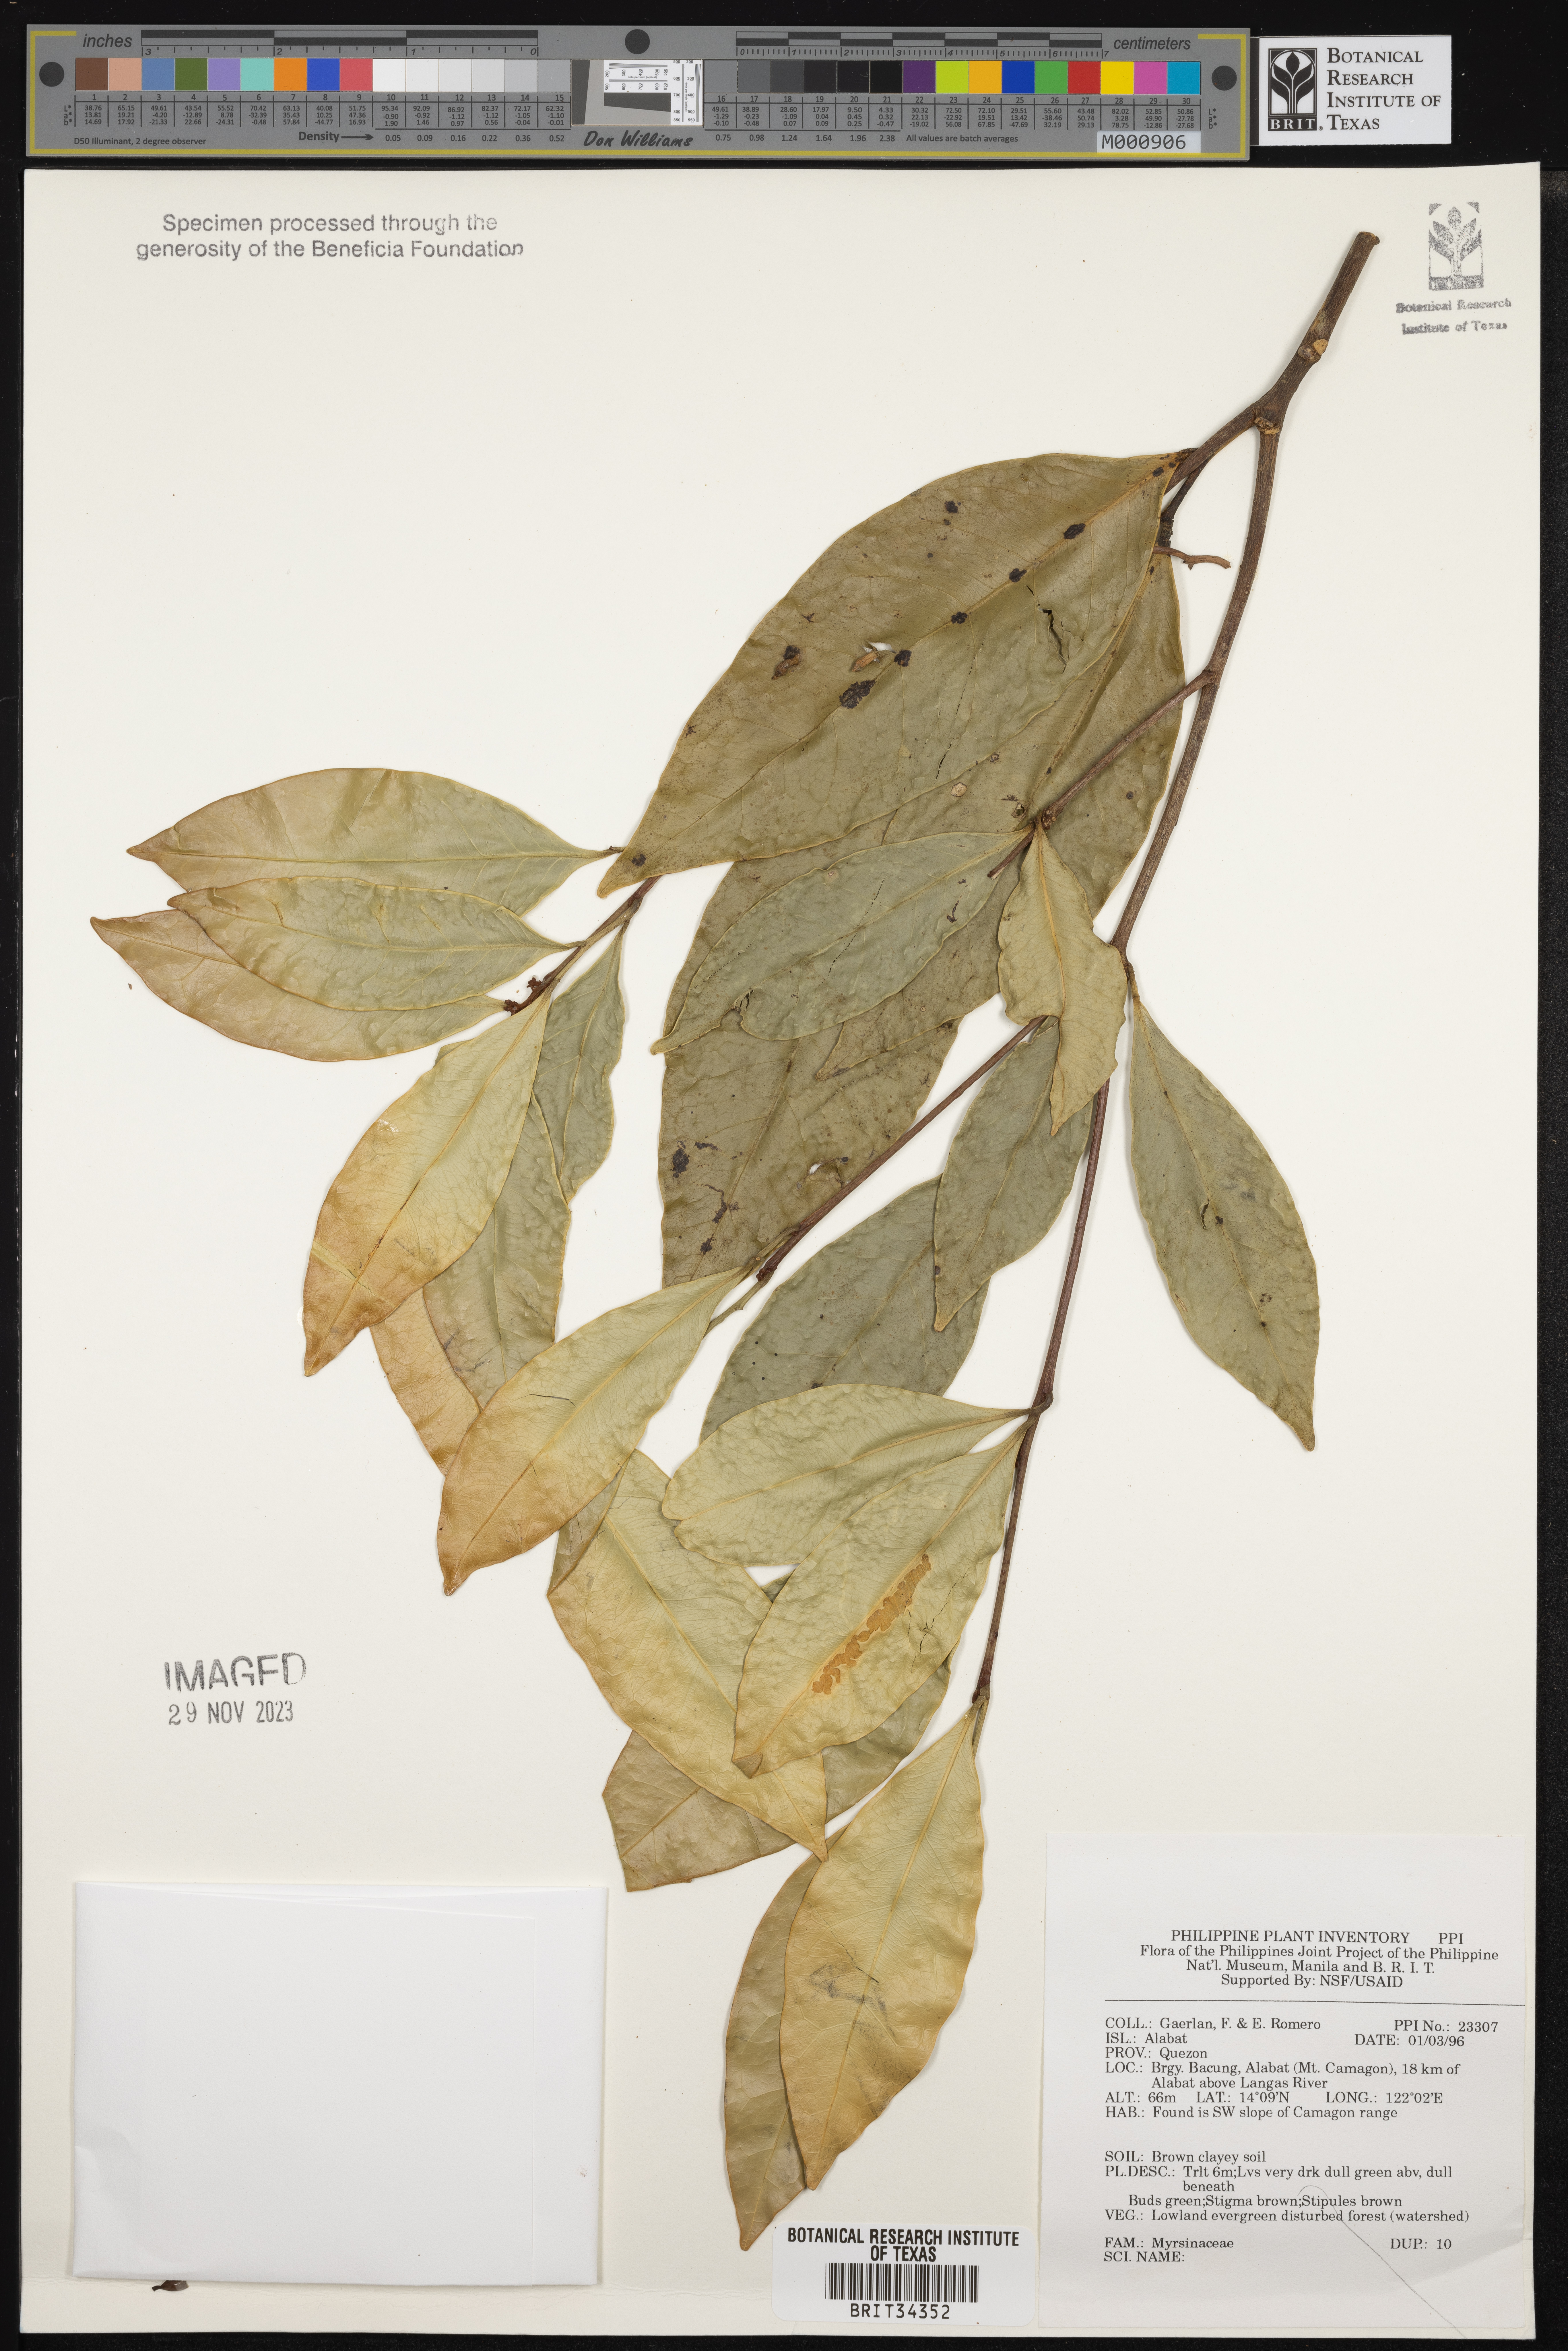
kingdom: Plantae
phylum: Tracheophyta
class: Magnoliopsida
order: Ericales
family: Primulaceae
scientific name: Primulaceae
